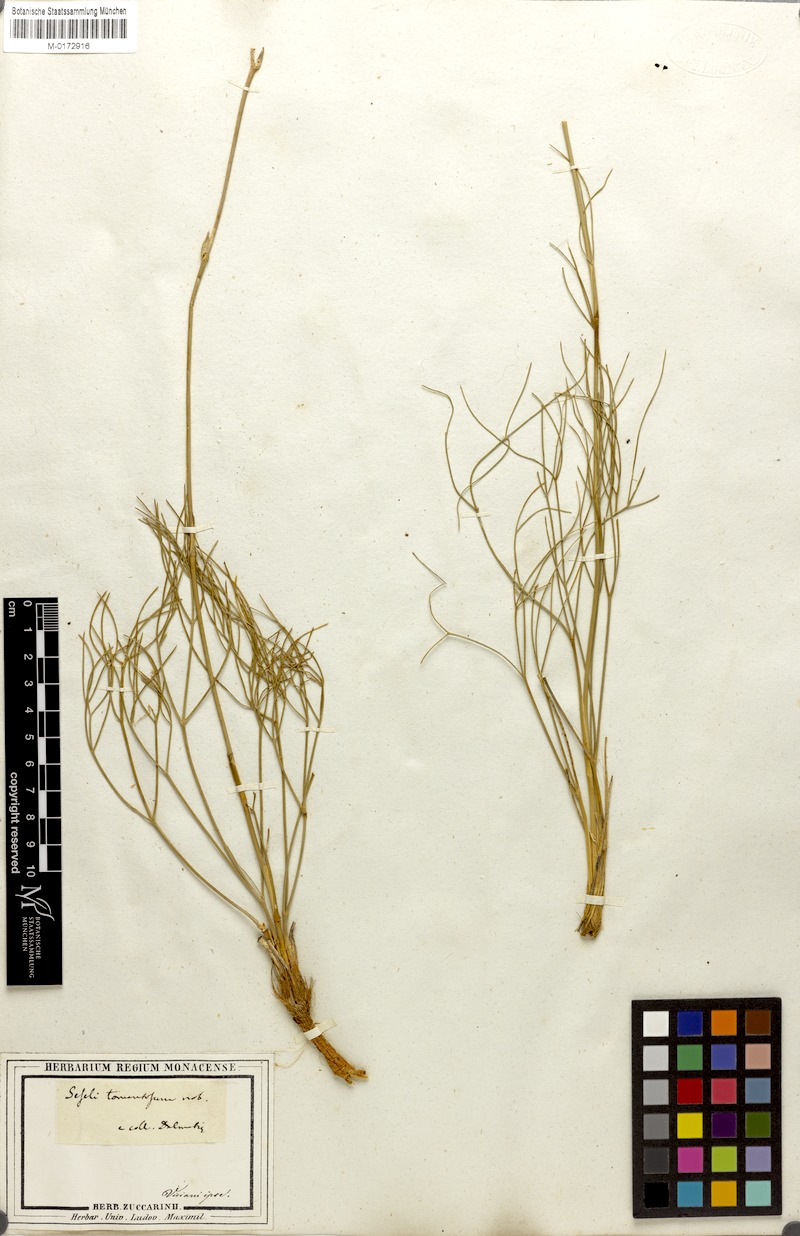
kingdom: Plantae
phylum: Tracheophyta
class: Magnoliopsida
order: Apiales
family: Apiaceae
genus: Cyathoselinum
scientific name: Cyathoselinum tomentosum
